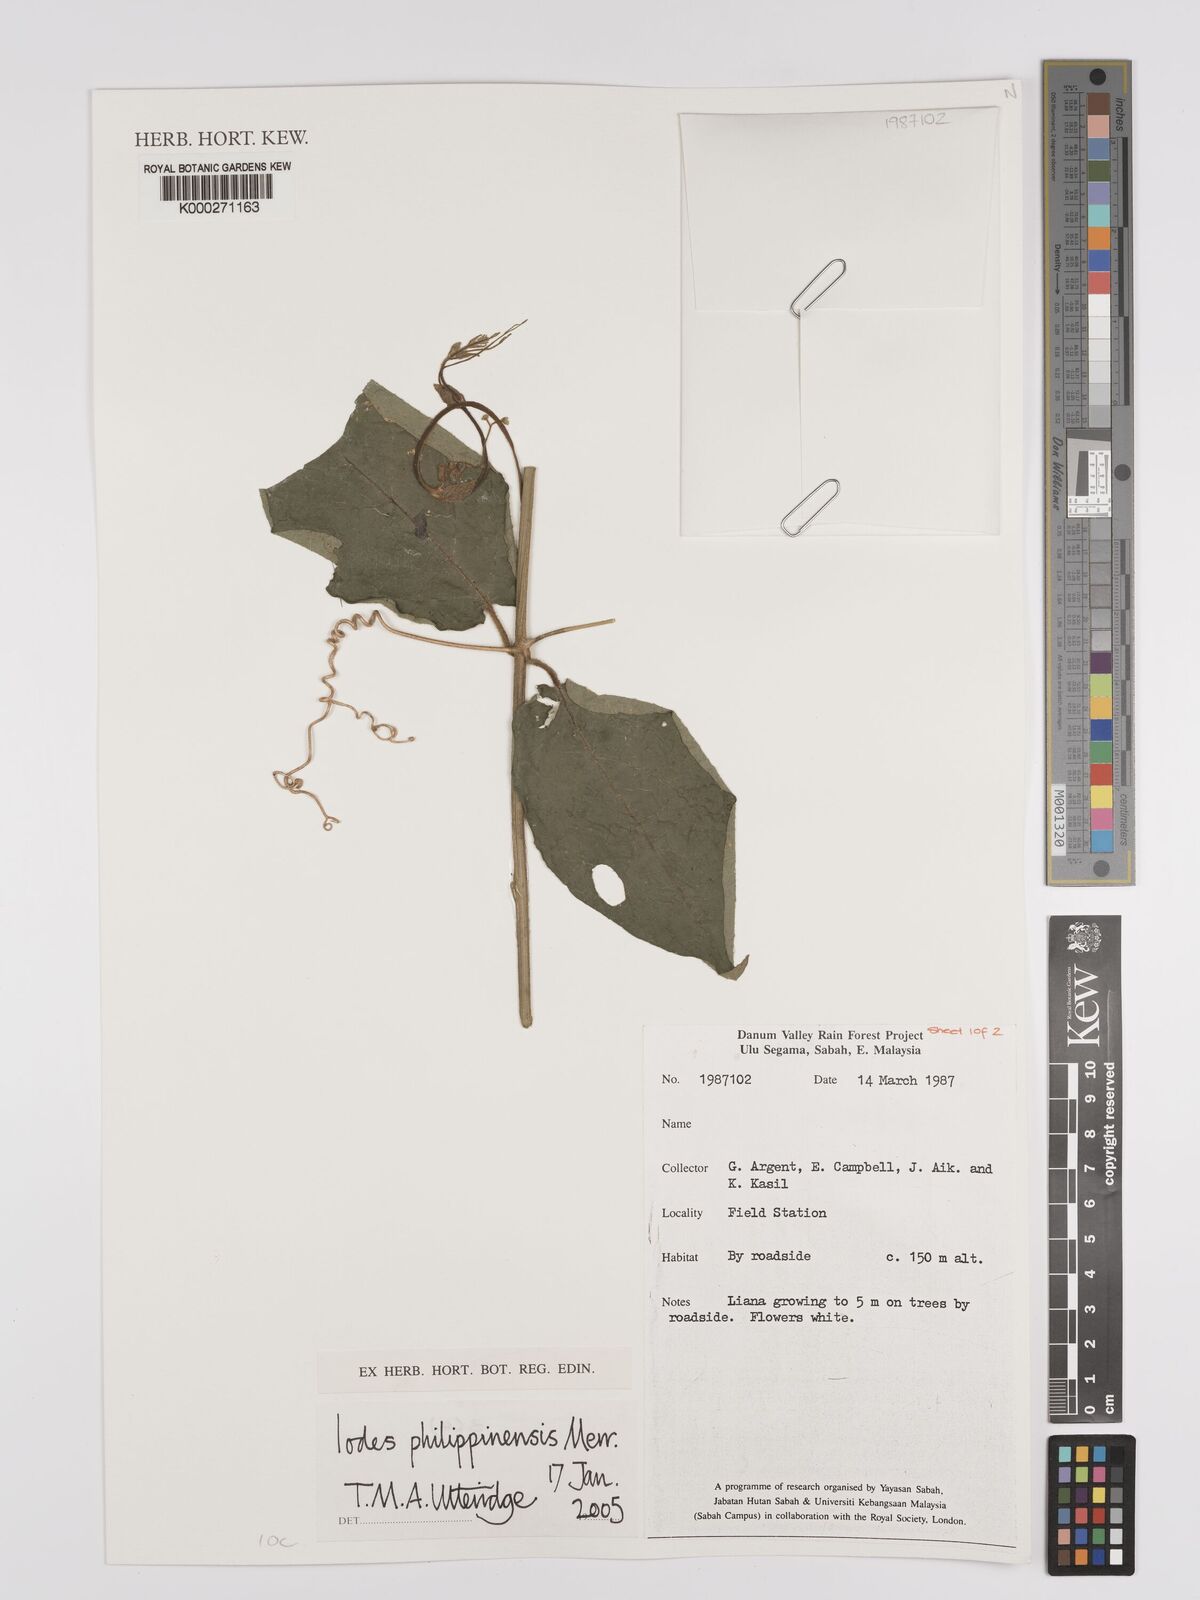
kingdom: Plantae
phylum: Tracheophyta
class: Magnoliopsida
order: Icacinales
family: Icacinaceae
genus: Iodes
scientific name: Iodes philippinensis
